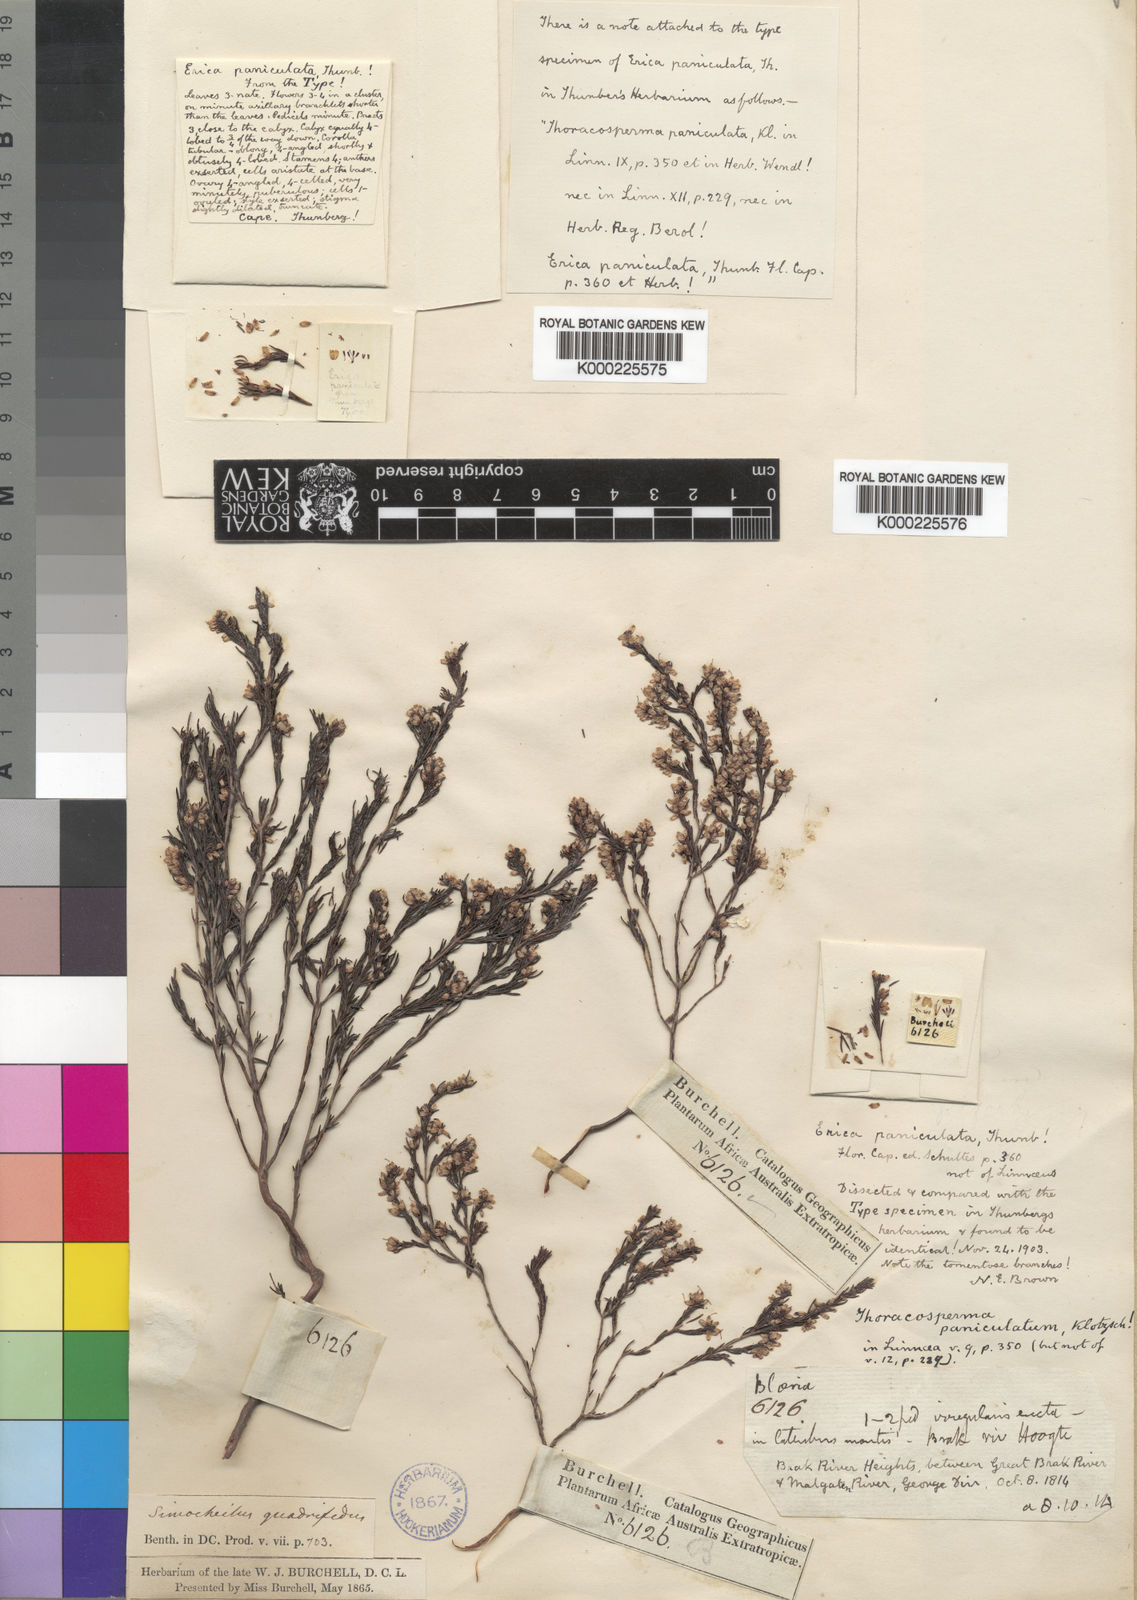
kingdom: Plantae
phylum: Tracheophyta
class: Magnoliopsida
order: Ericales
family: Ericaceae
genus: Erica
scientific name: Erica thamnoides
